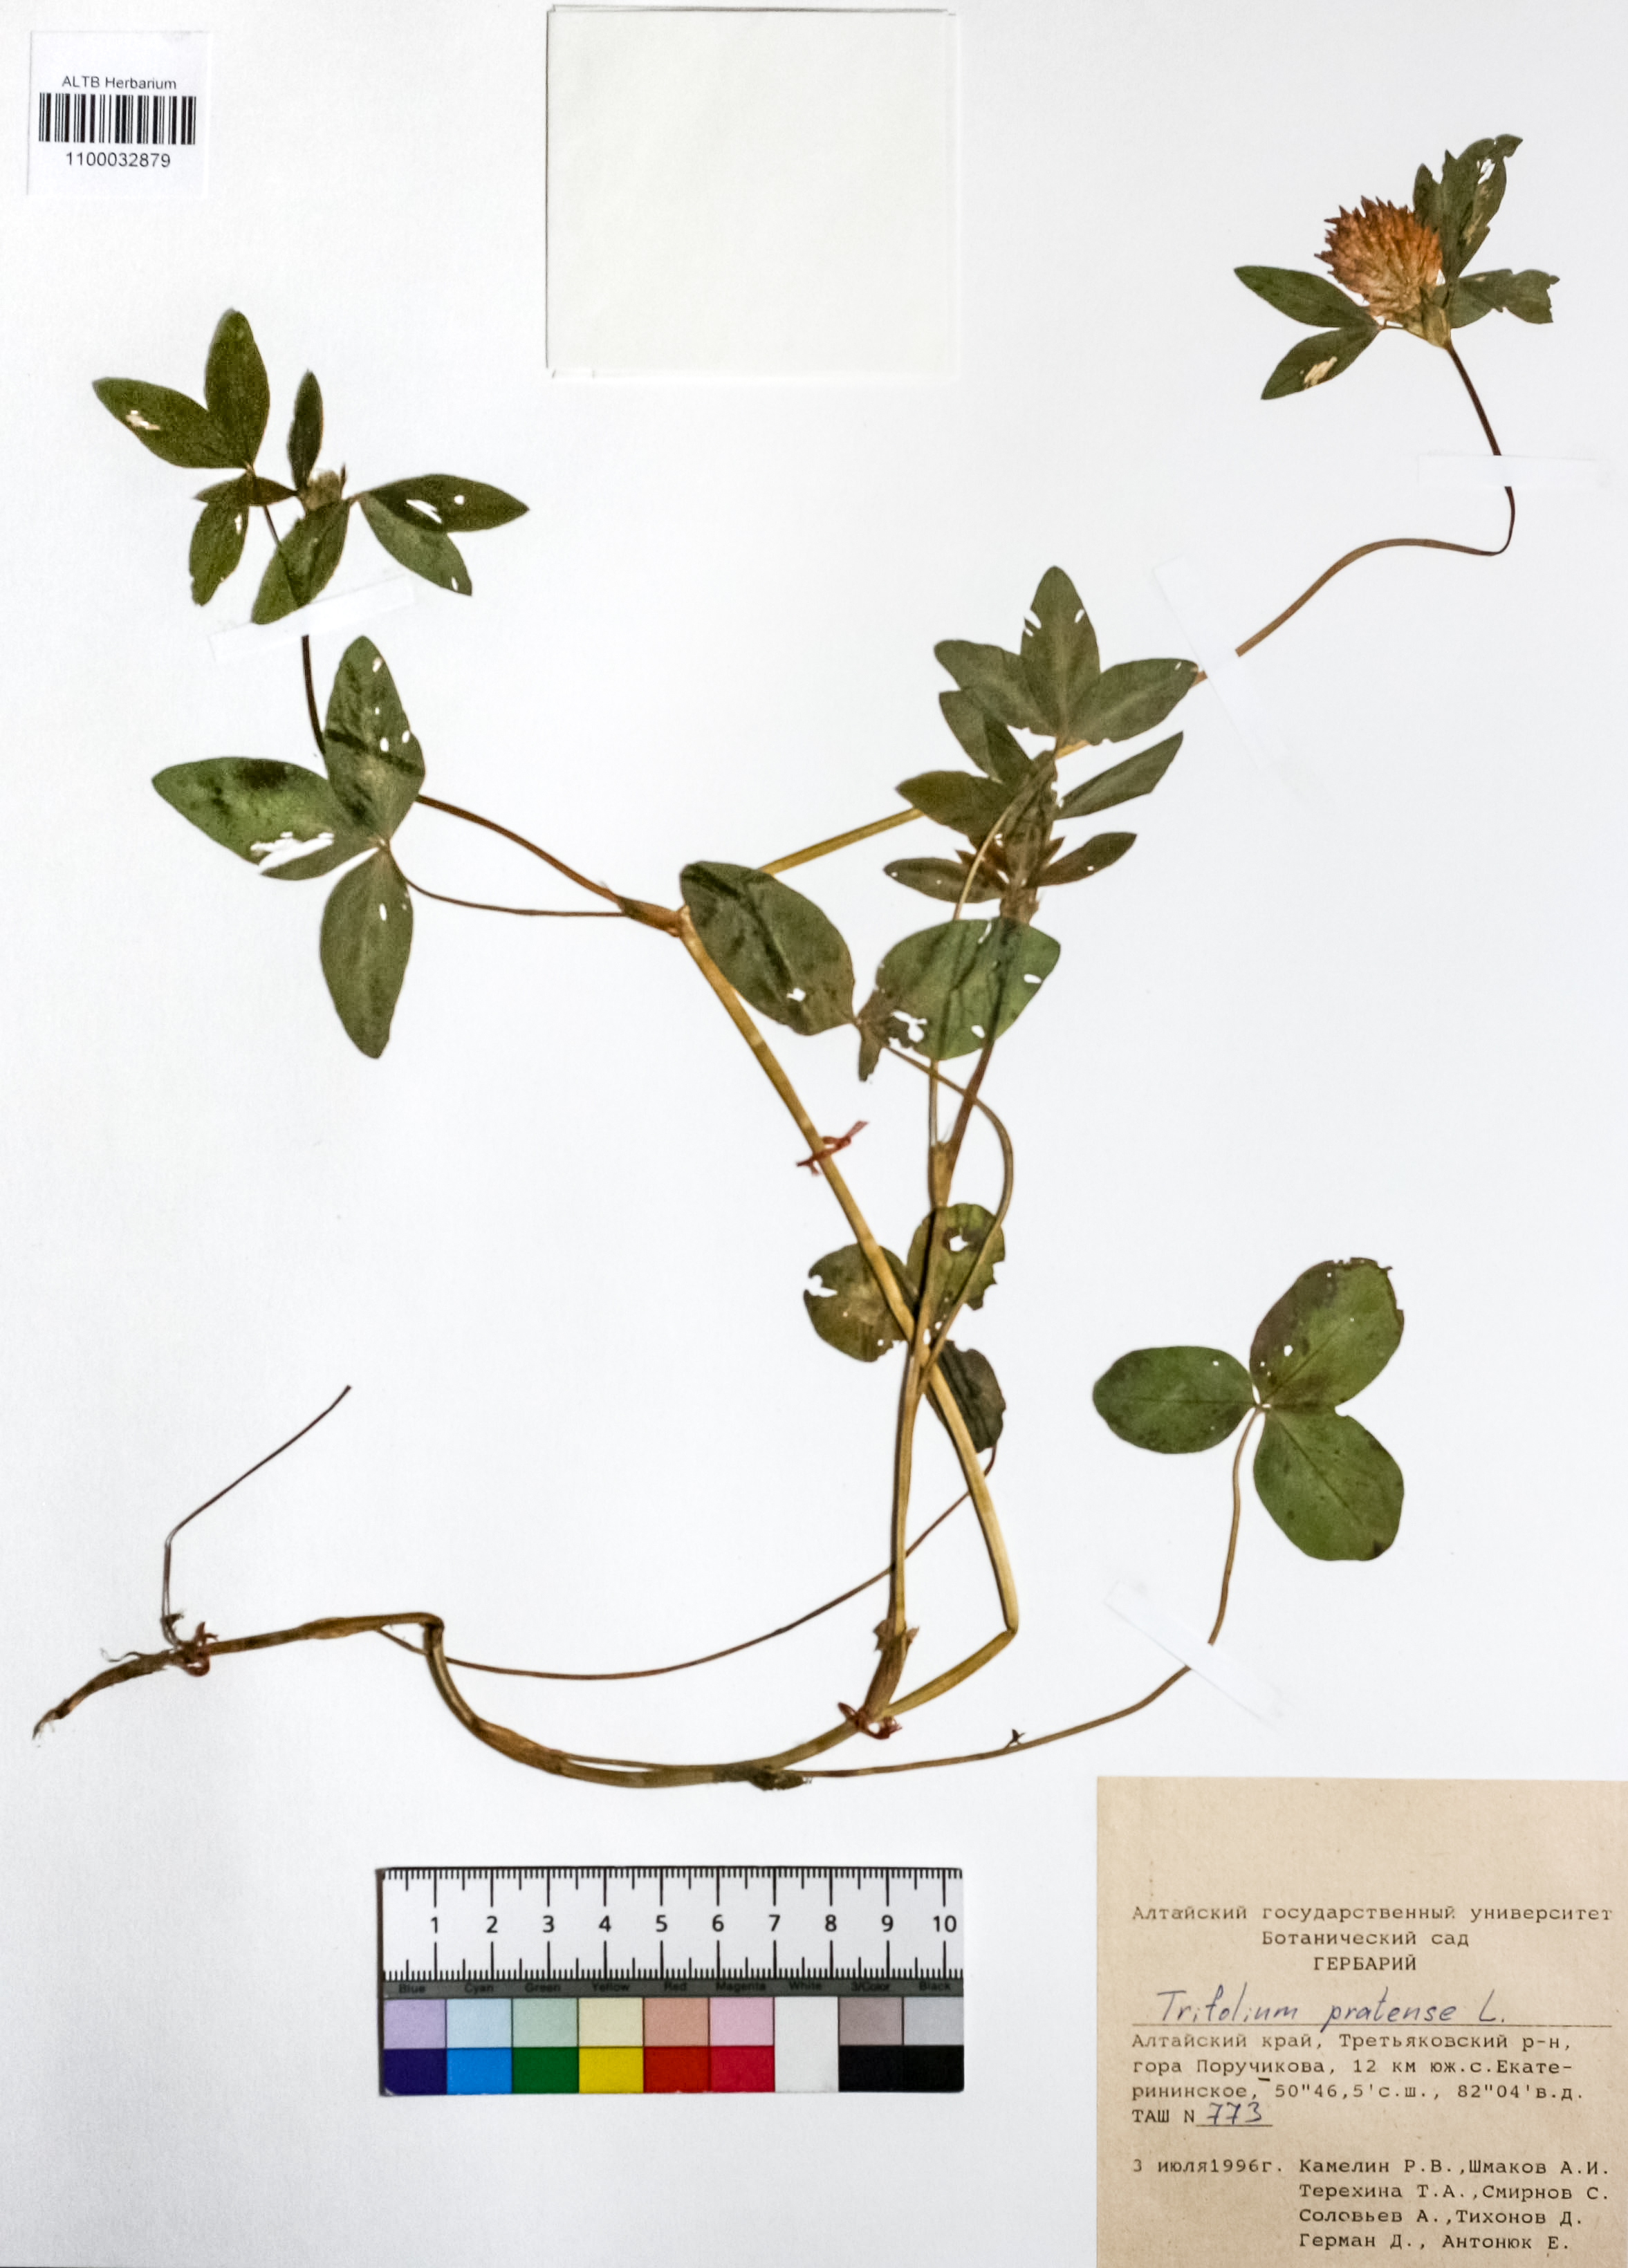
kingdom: Plantae
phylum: Tracheophyta
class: Magnoliopsida
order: Fabales
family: Fabaceae
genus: Trifolium
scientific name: Trifolium pratense
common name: Red clover
